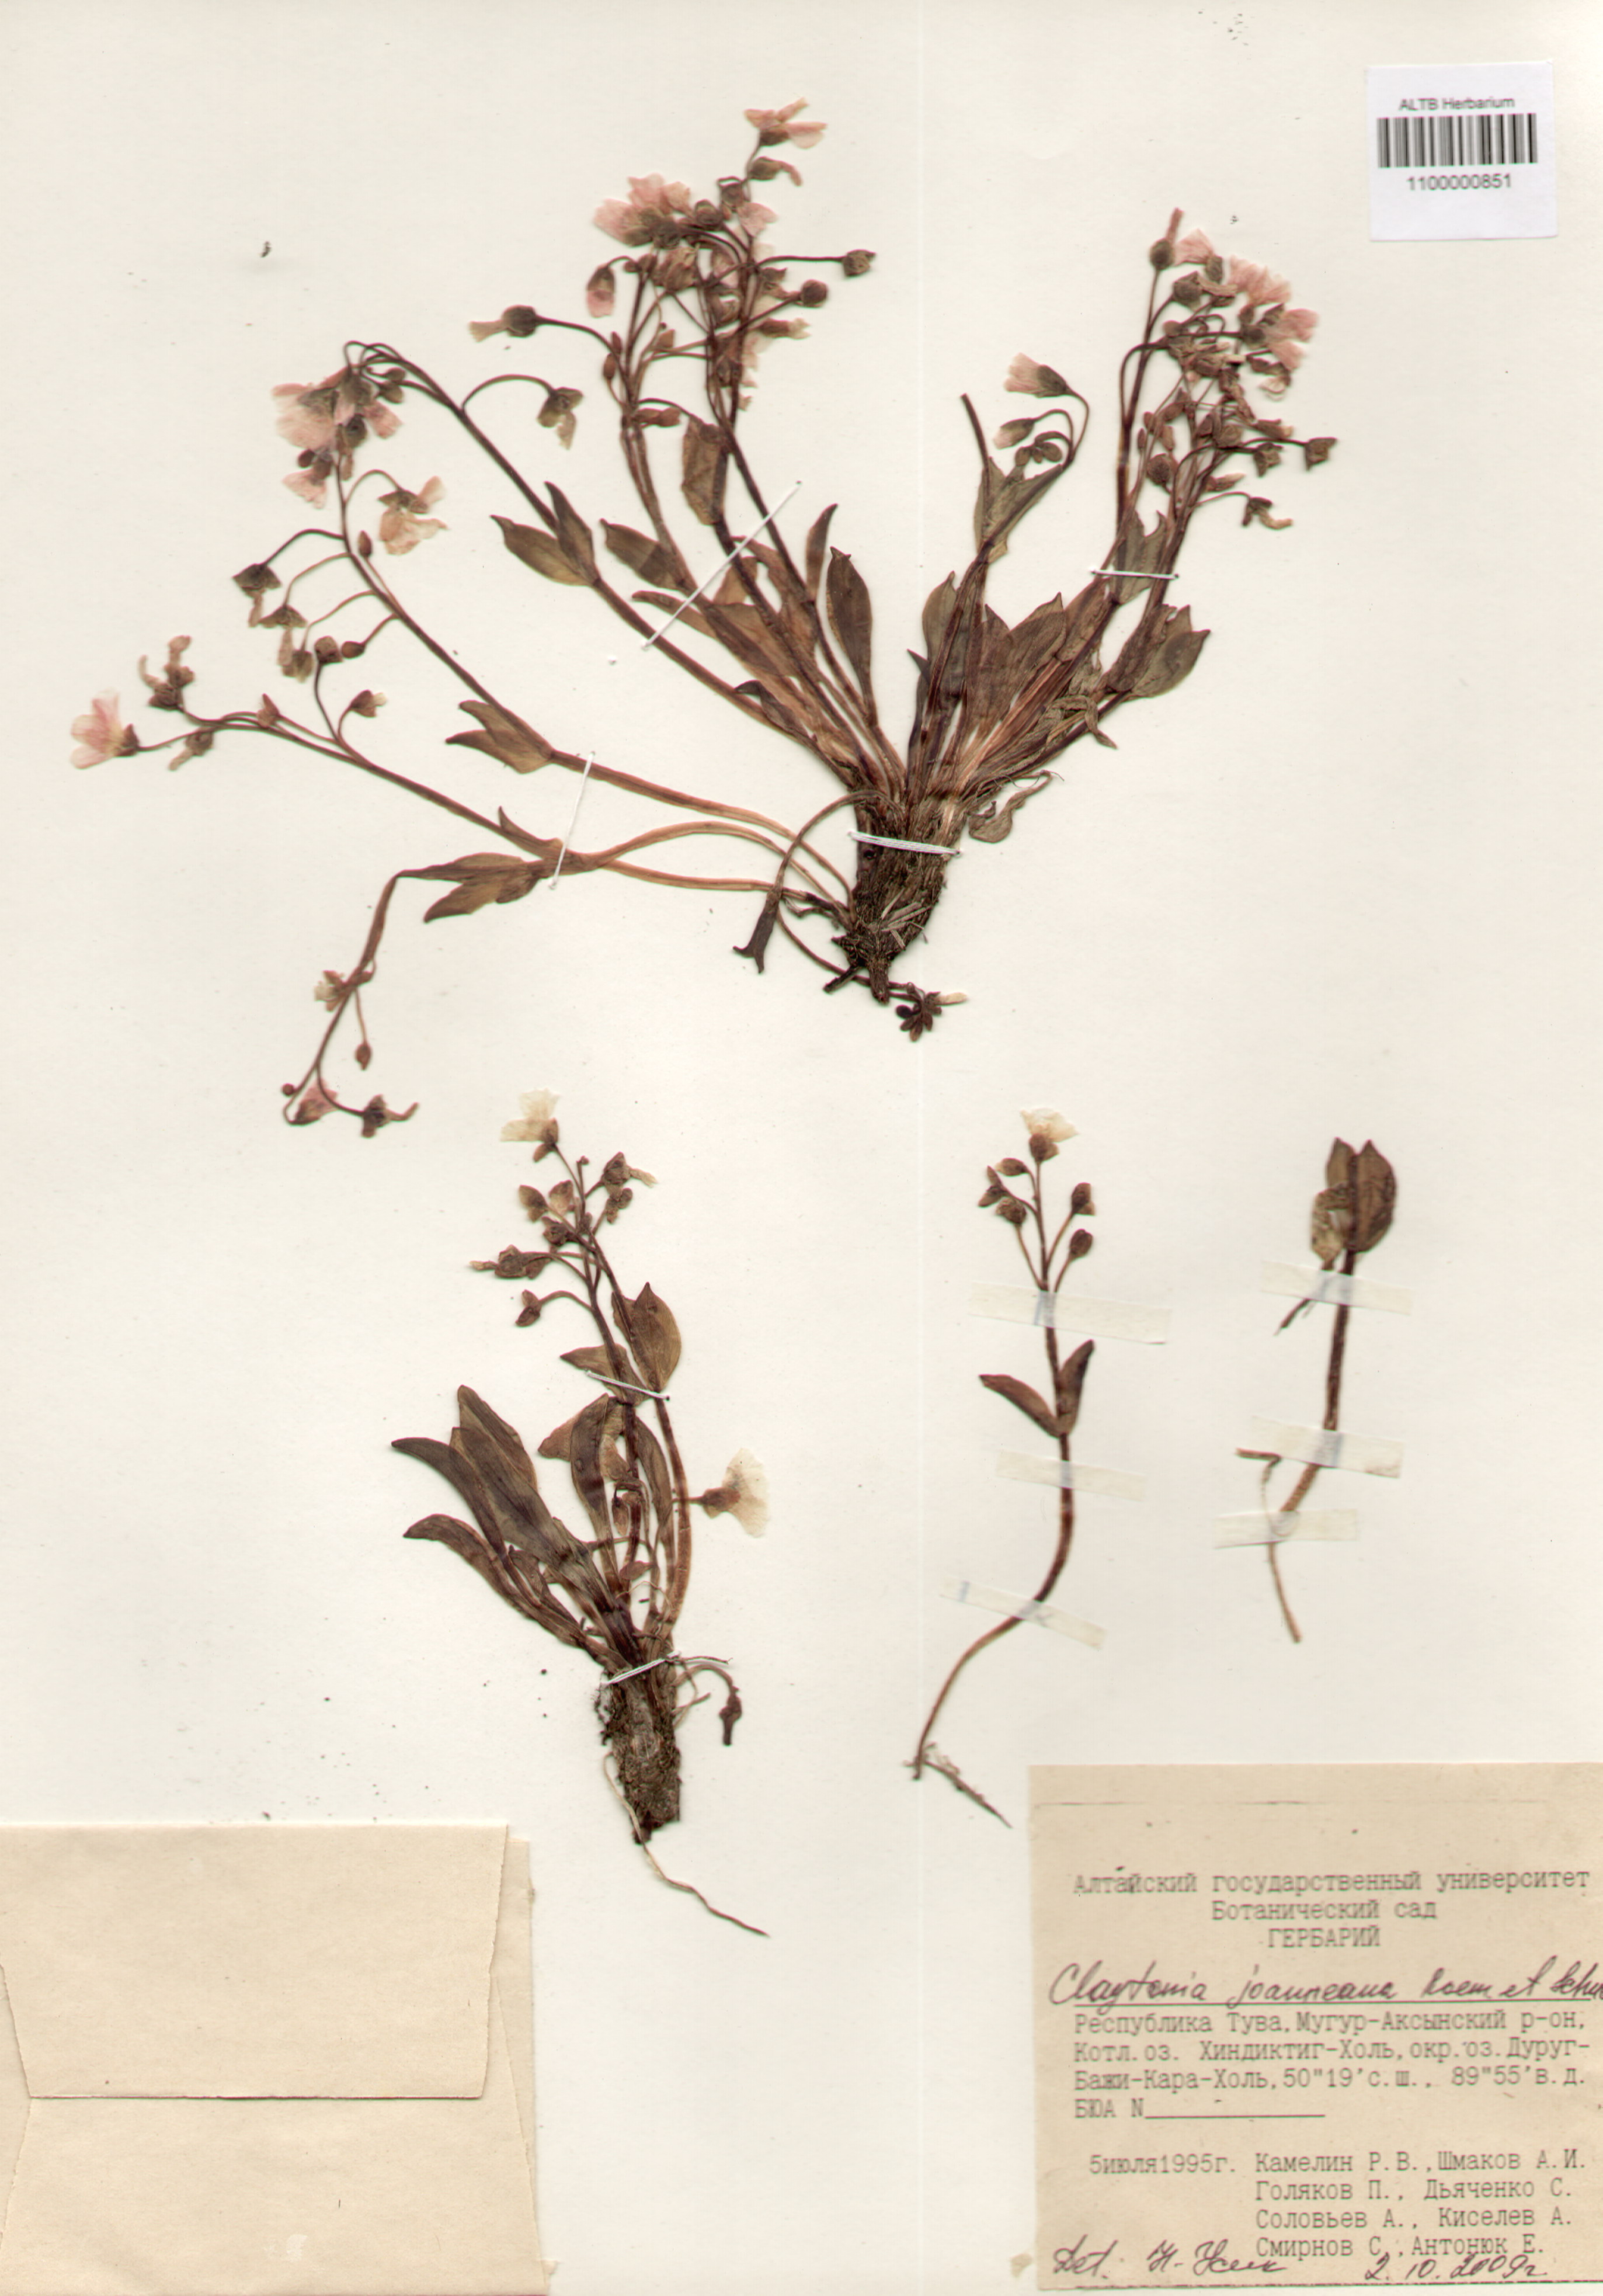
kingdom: Plantae
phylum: Tracheophyta
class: Magnoliopsida
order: Caryophyllales
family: Montiaceae
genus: Claytonia
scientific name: Claytonia joanneana
